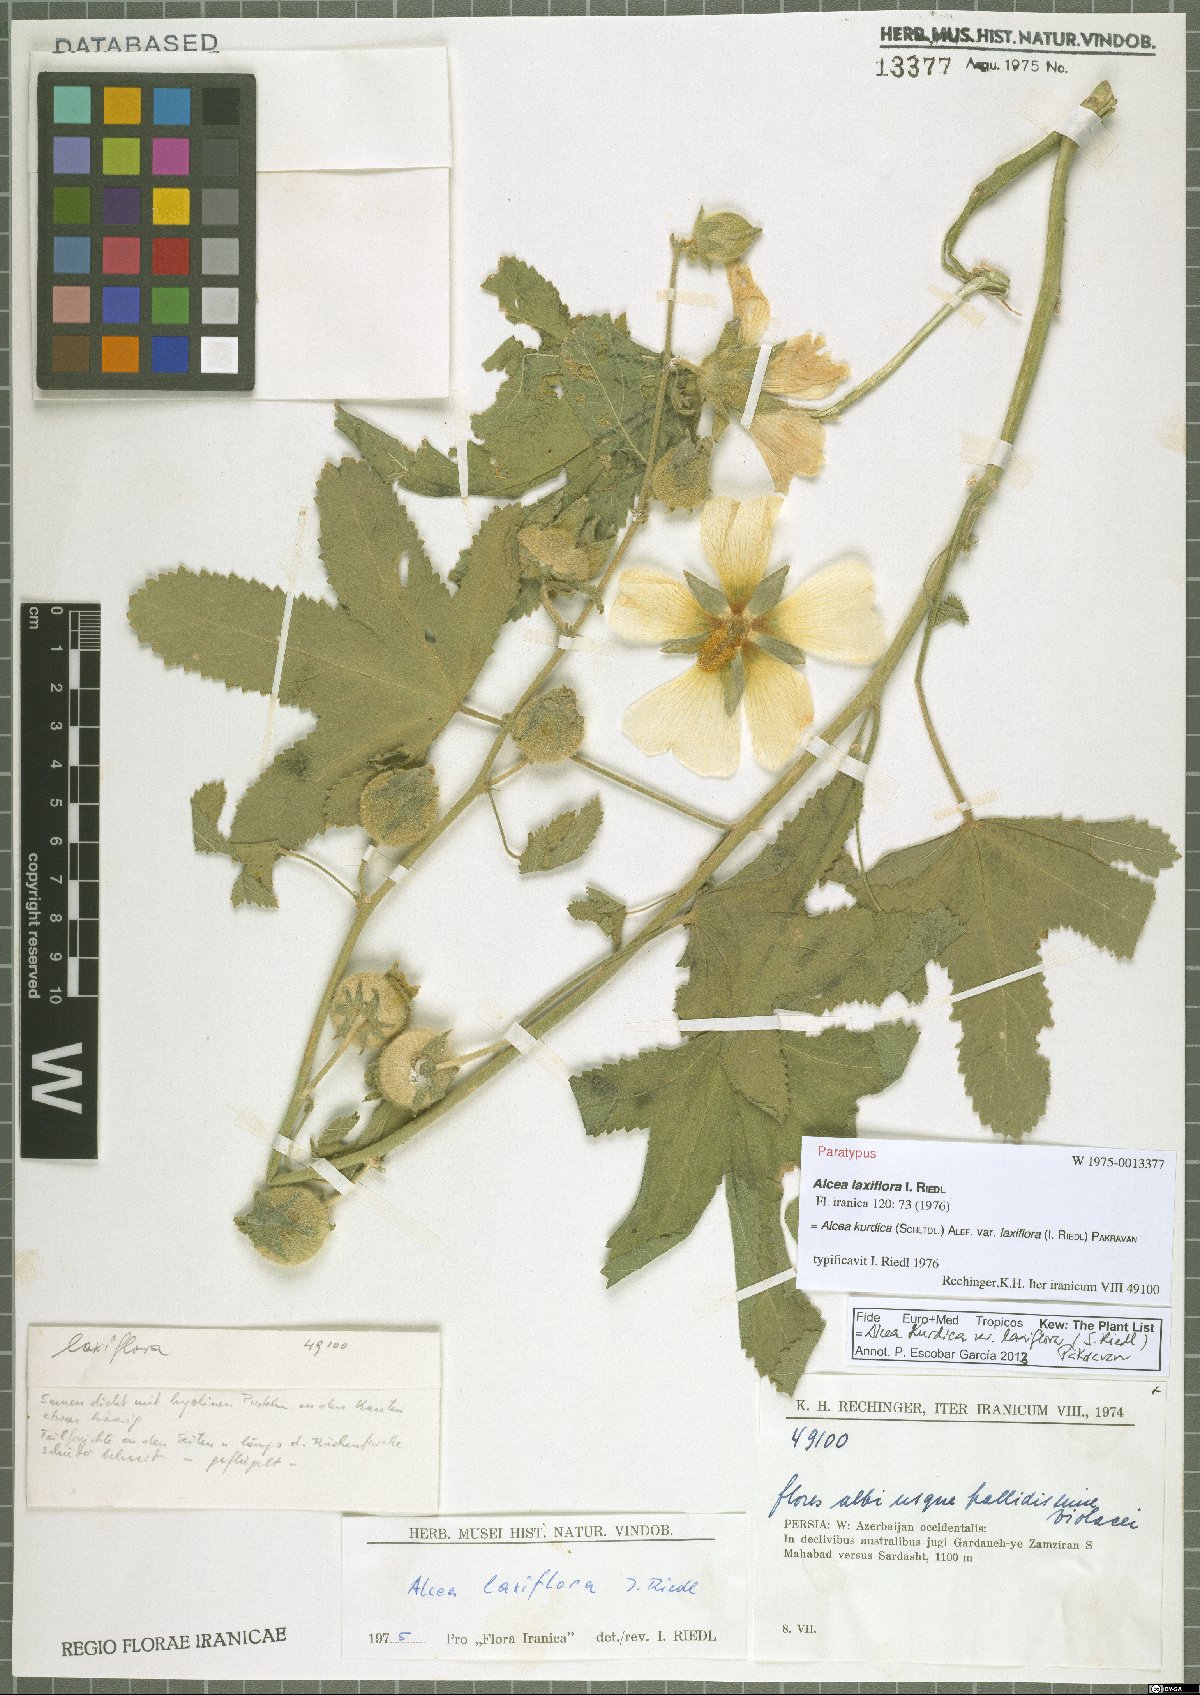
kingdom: Plantae
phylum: Tracheophyta
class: Magnoliopsida
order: Malvales
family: Malvaceae
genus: Alcea
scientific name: Alcea kurdica
